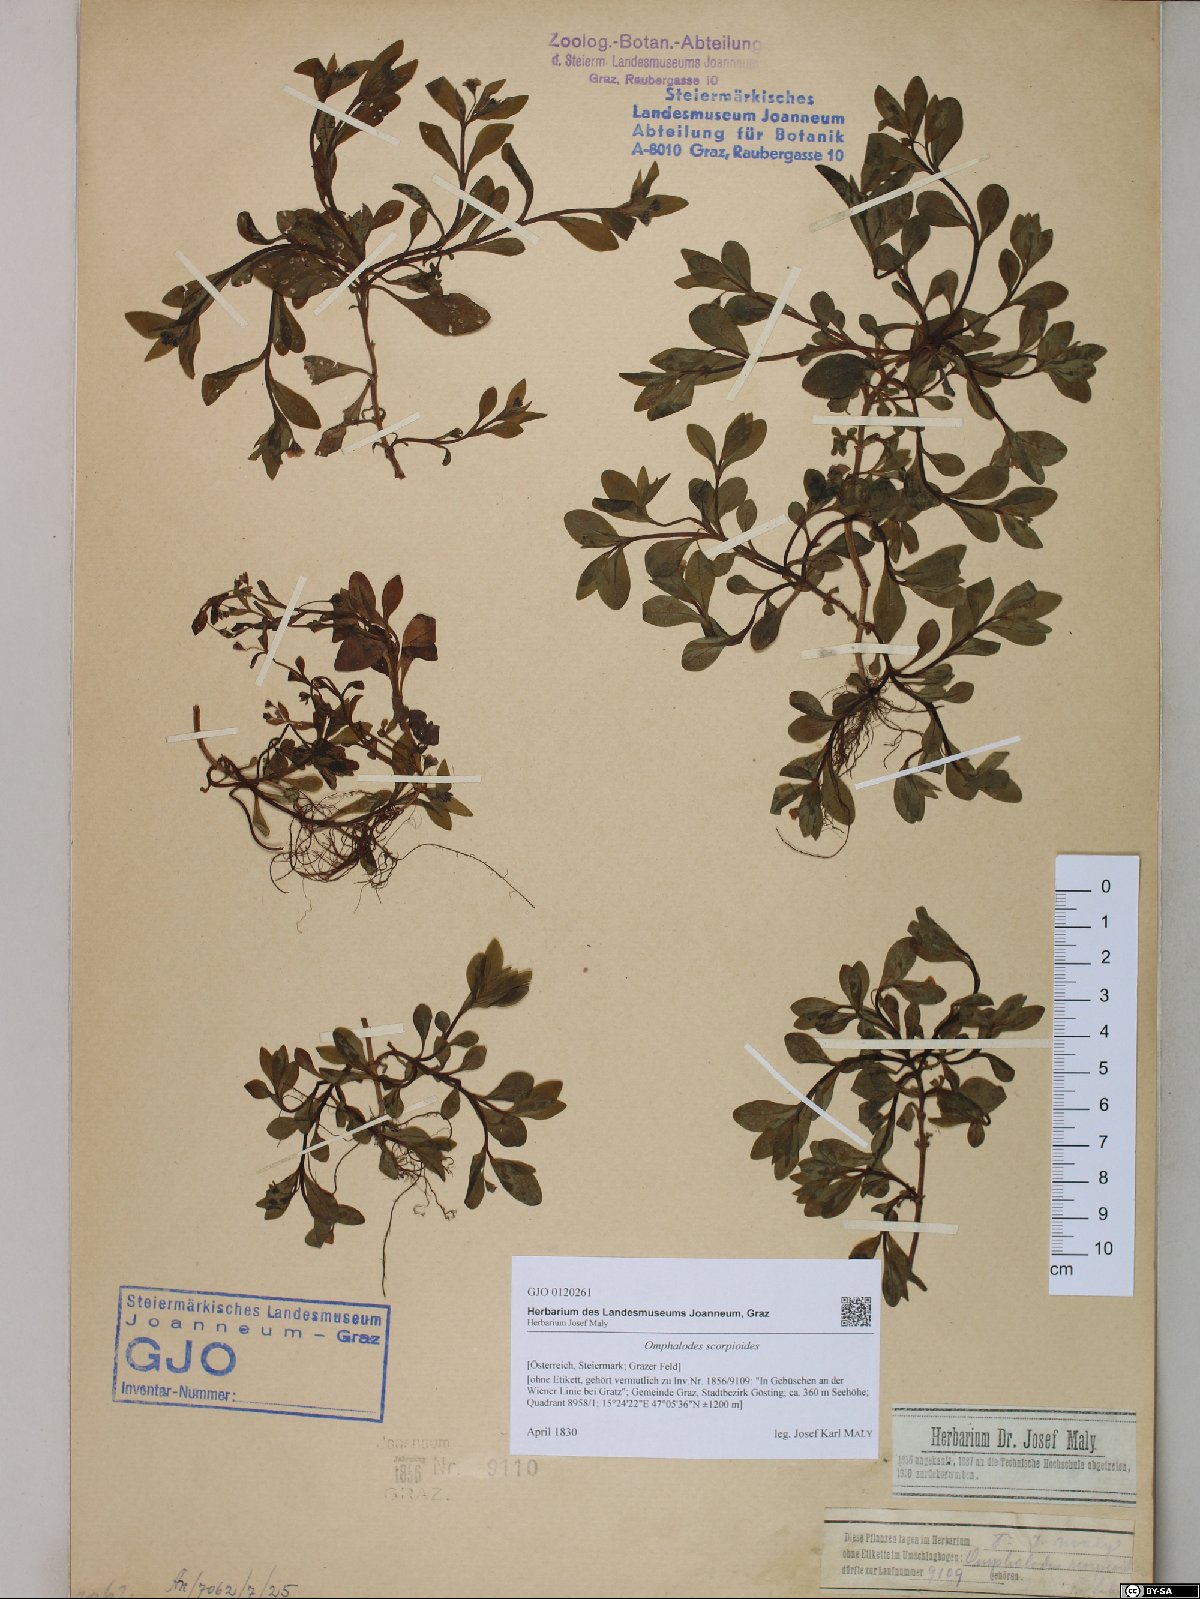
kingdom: Plantae
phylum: Tracheophyta
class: Magnoliopsida
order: Boraginales
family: Boraginaceae
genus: Memoremea
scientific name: Memoremea scorpioides
